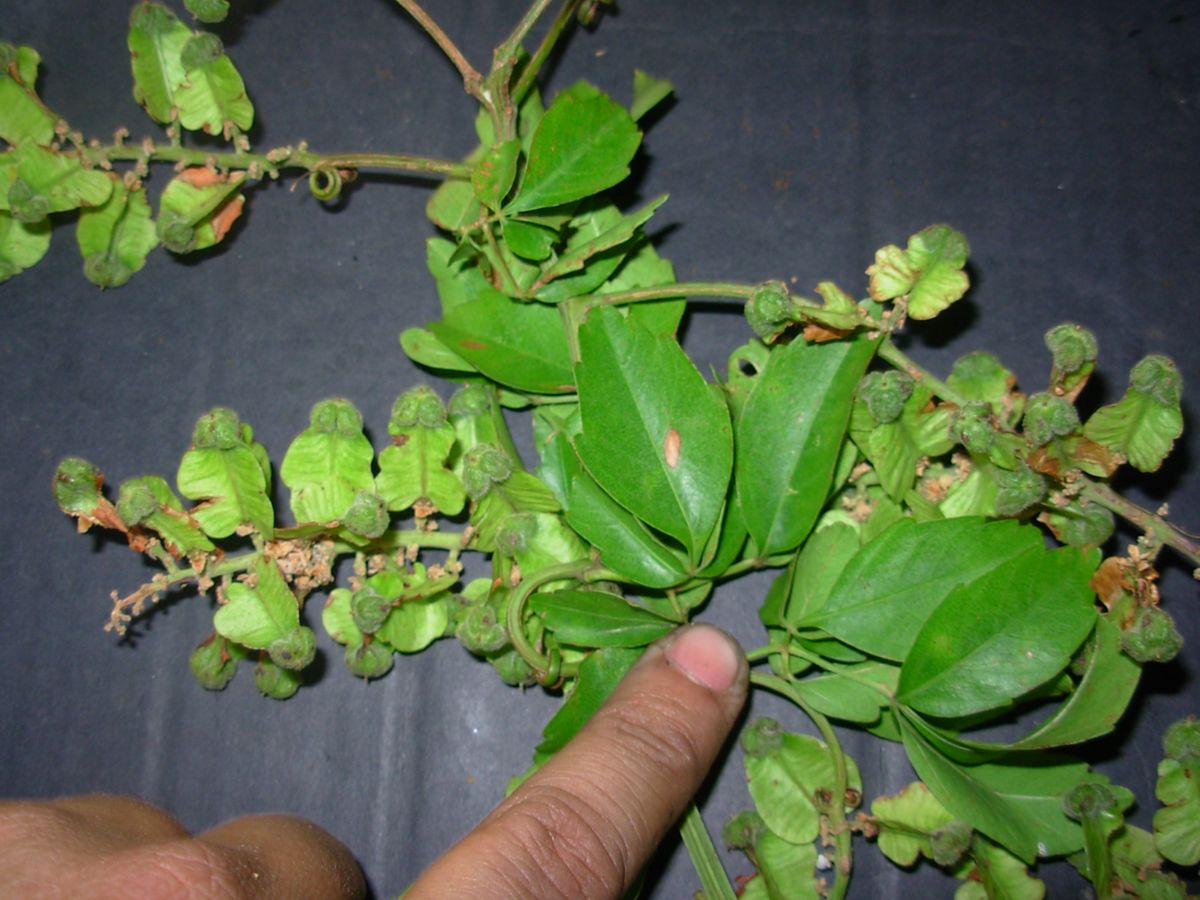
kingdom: Plantae
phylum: Tracheophyta
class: Magnoliopsida
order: Sapindales
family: Sapindaceae
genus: Serjania
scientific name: Serjania paniculata
